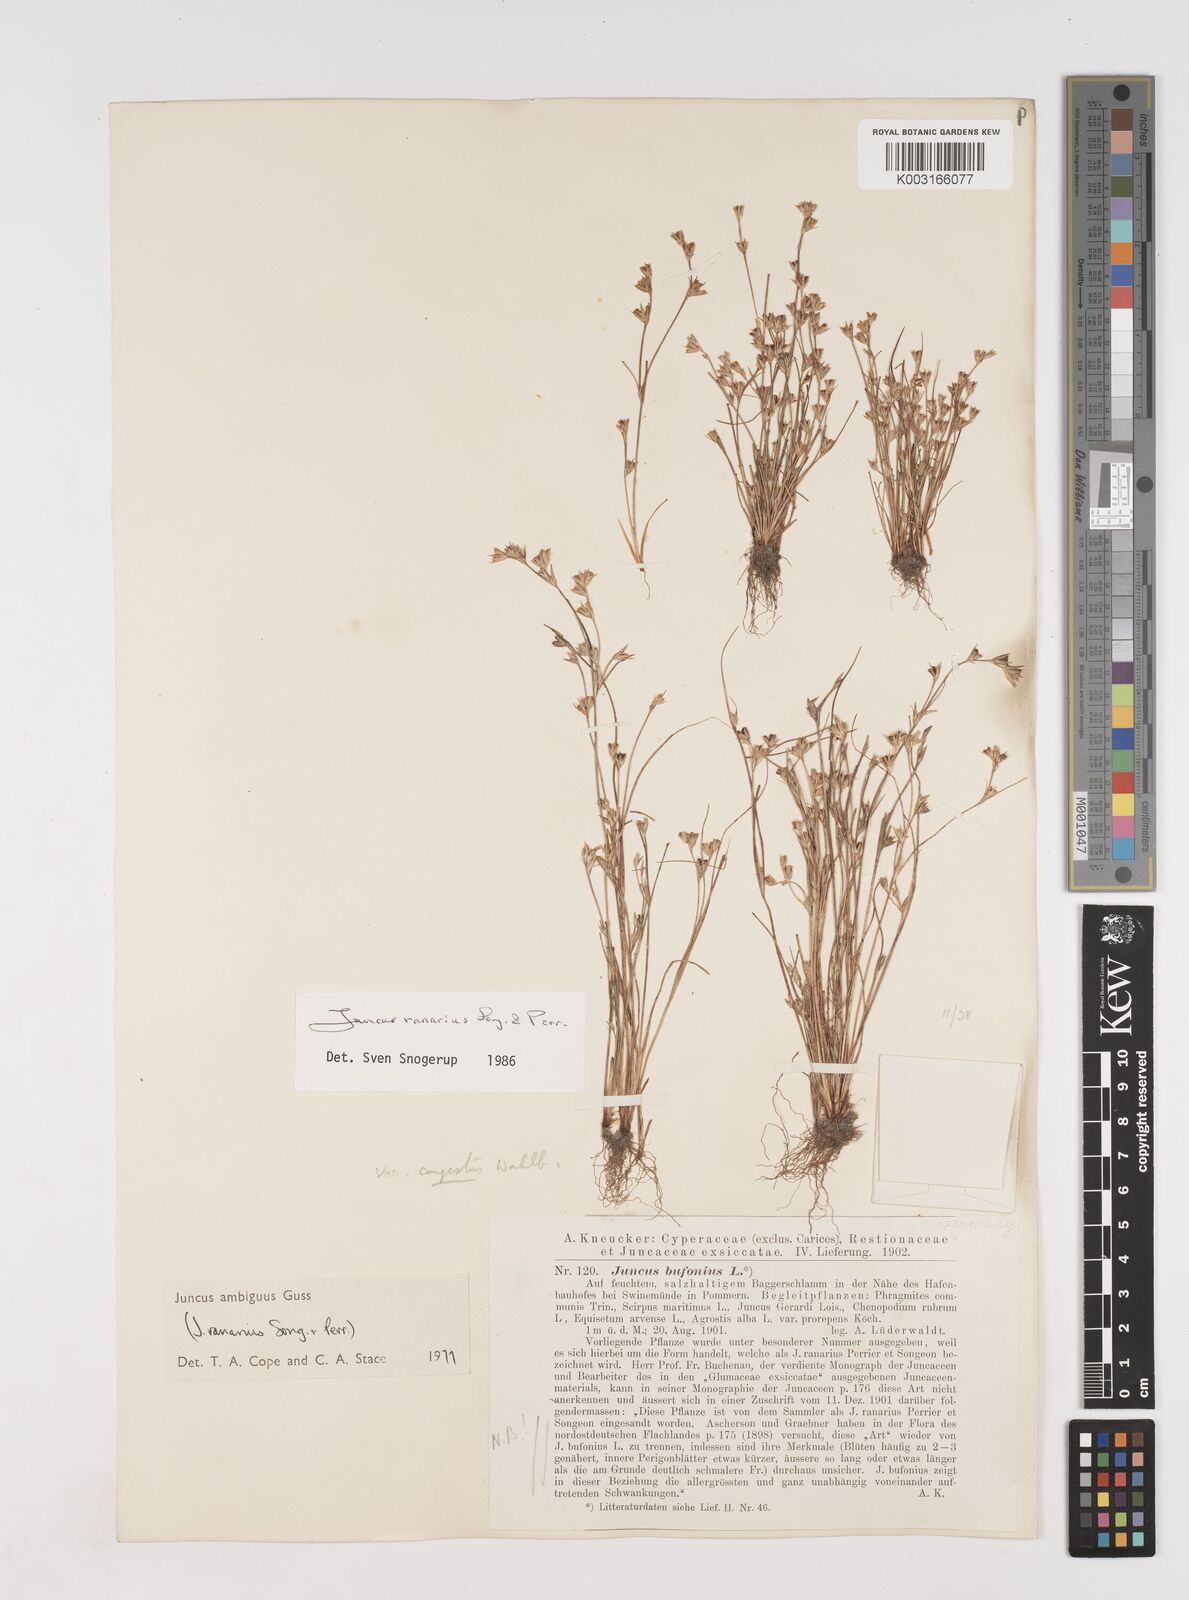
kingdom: Plantae
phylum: Tracheophyta
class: Liliopsida
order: Poales
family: Juncaceae
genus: Juncus
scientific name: Juncus hybridus
